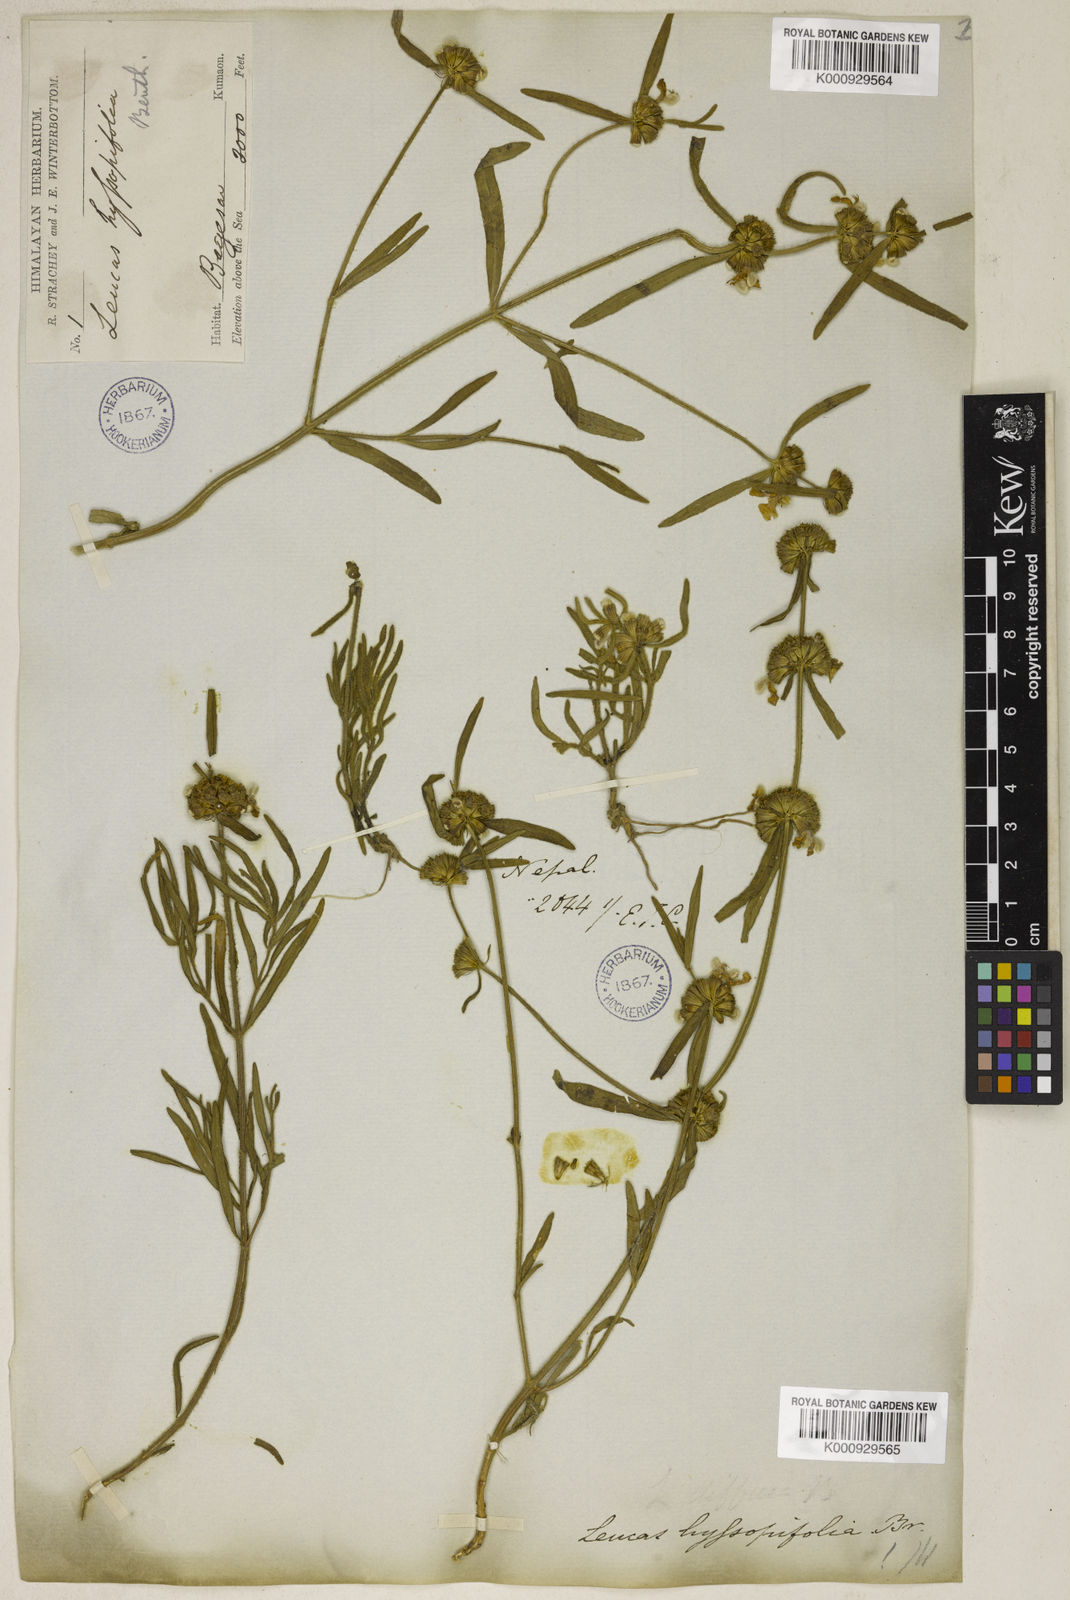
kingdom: Plantae
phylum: Tracheophyta
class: Magnoliopsida
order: Lamiales
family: Lamiaceae
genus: Leucas
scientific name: Leucas hyssopifolia
